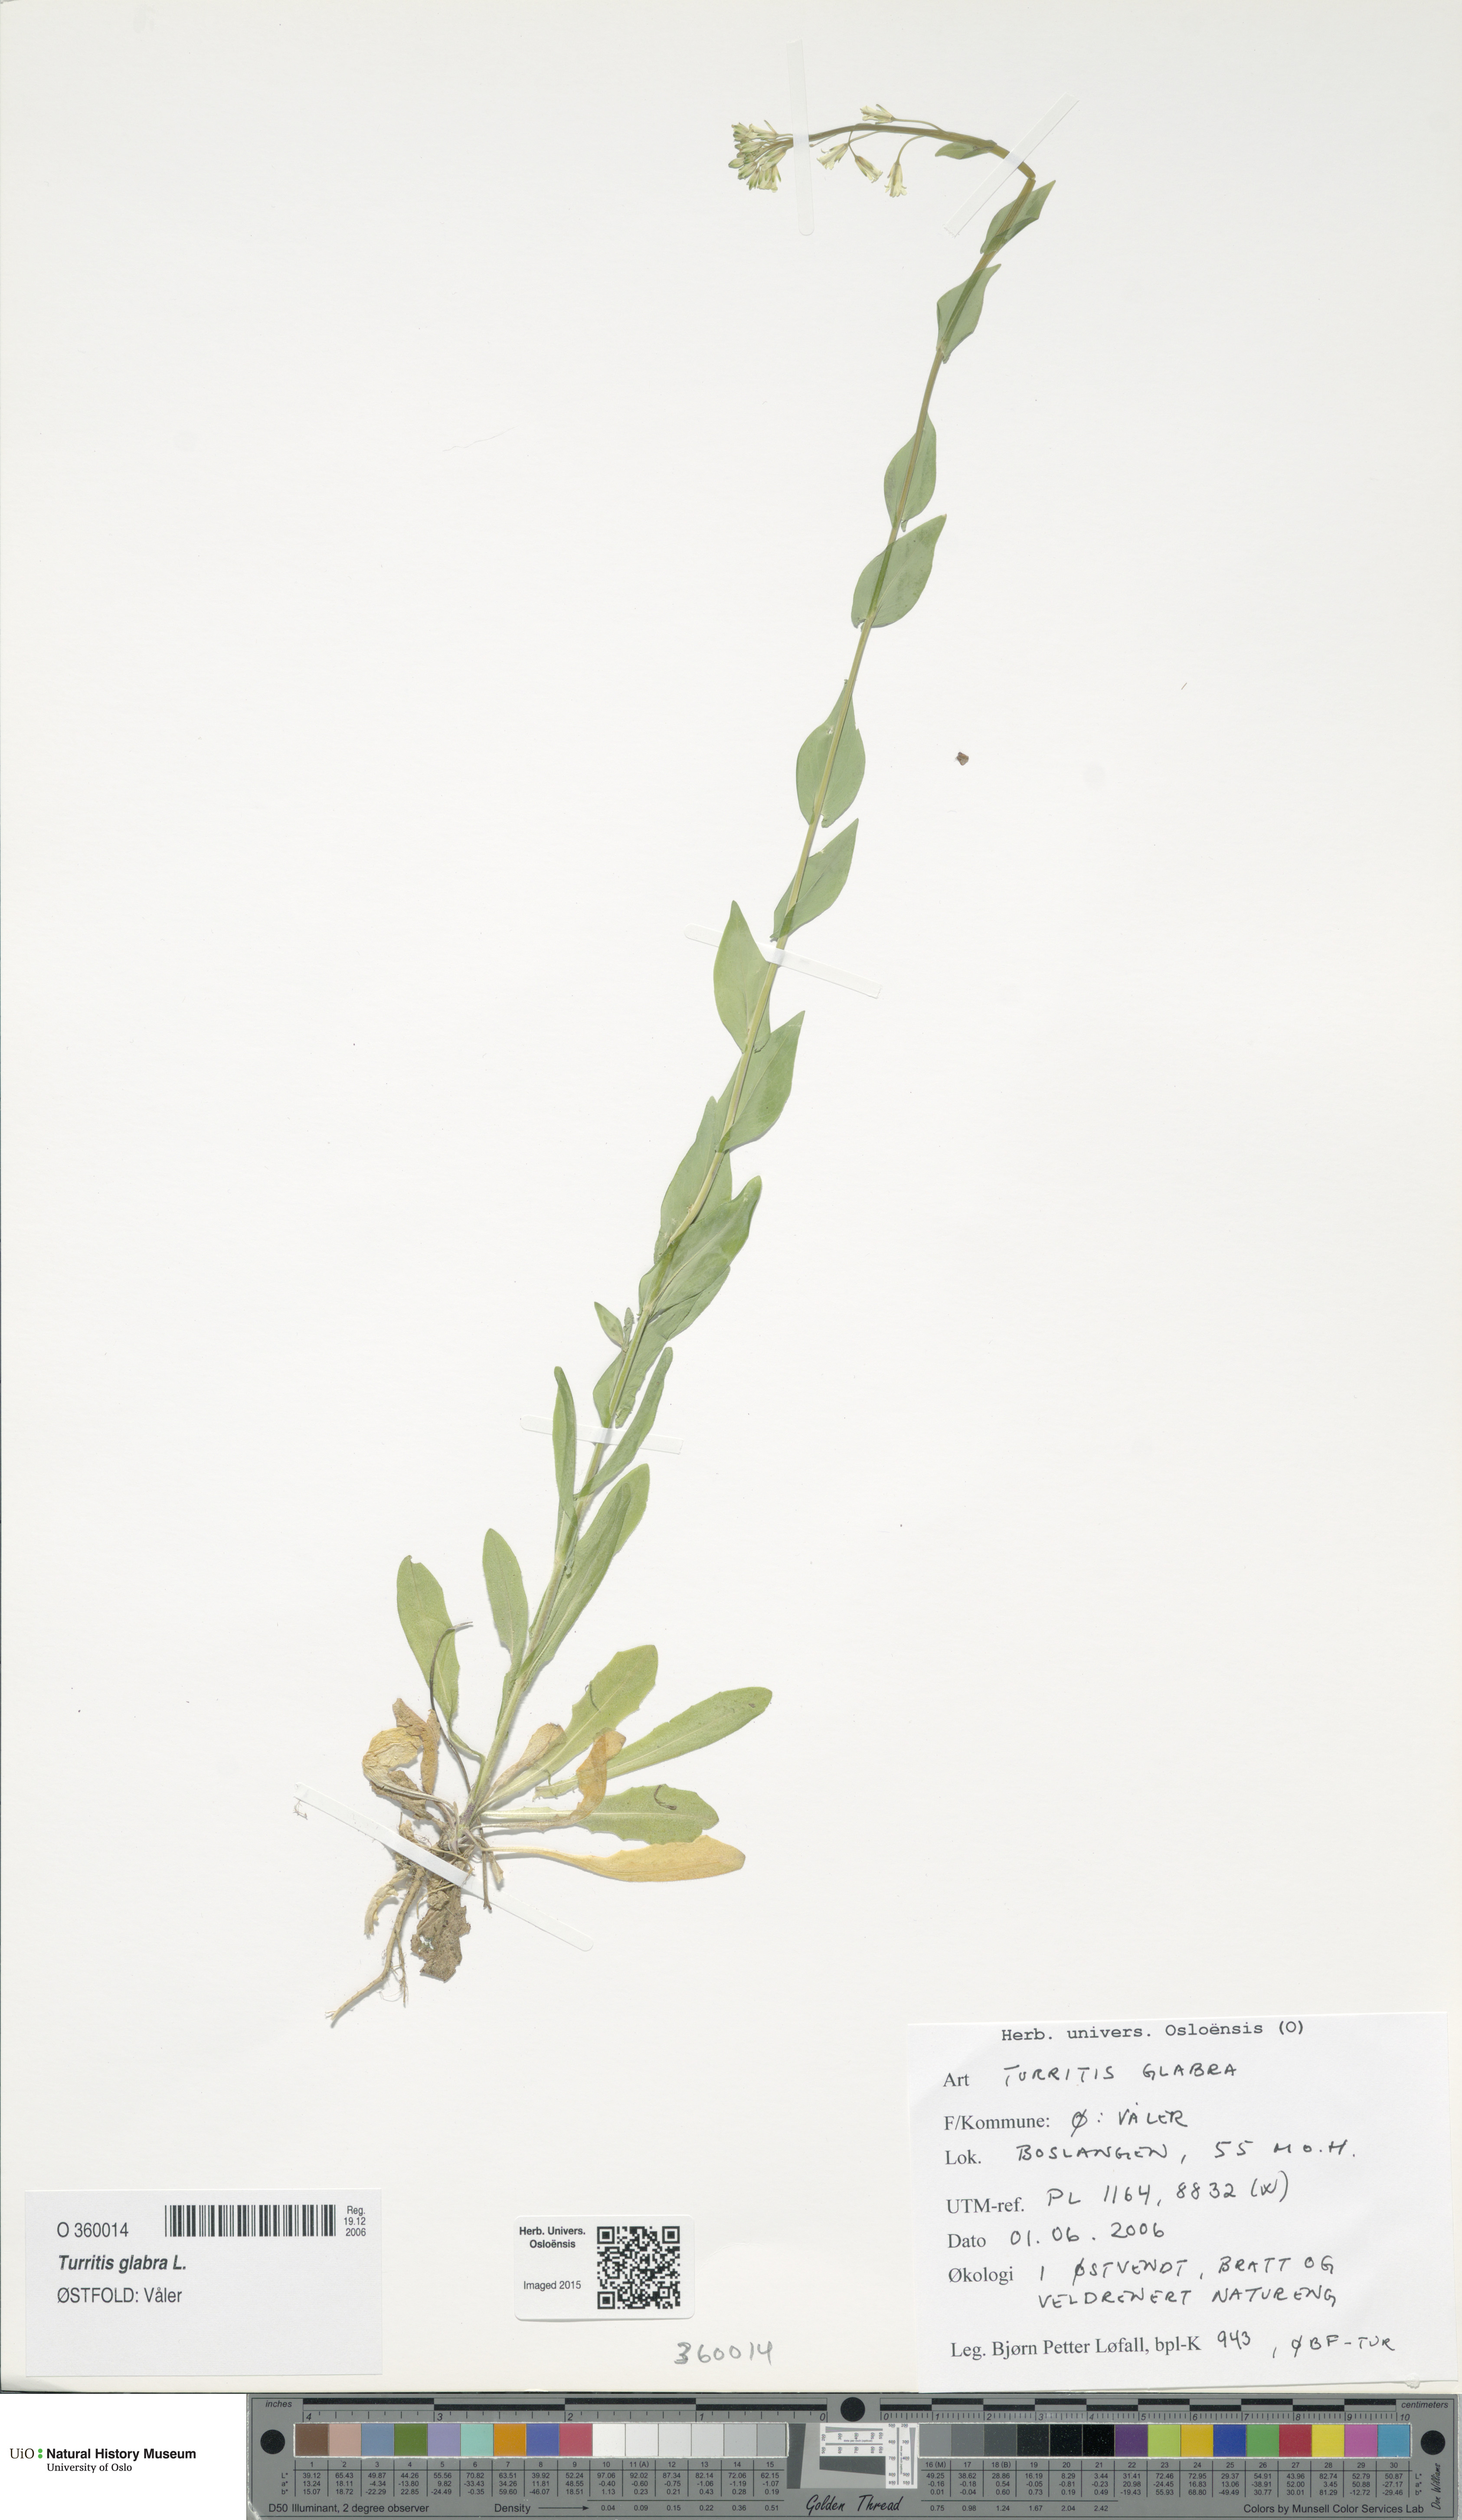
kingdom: Plantae
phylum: Tracheophyta
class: Magnoliopsida
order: Brassicales
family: Brassicaceae
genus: Turritis
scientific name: Turritis glabra
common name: Tower rockcress
